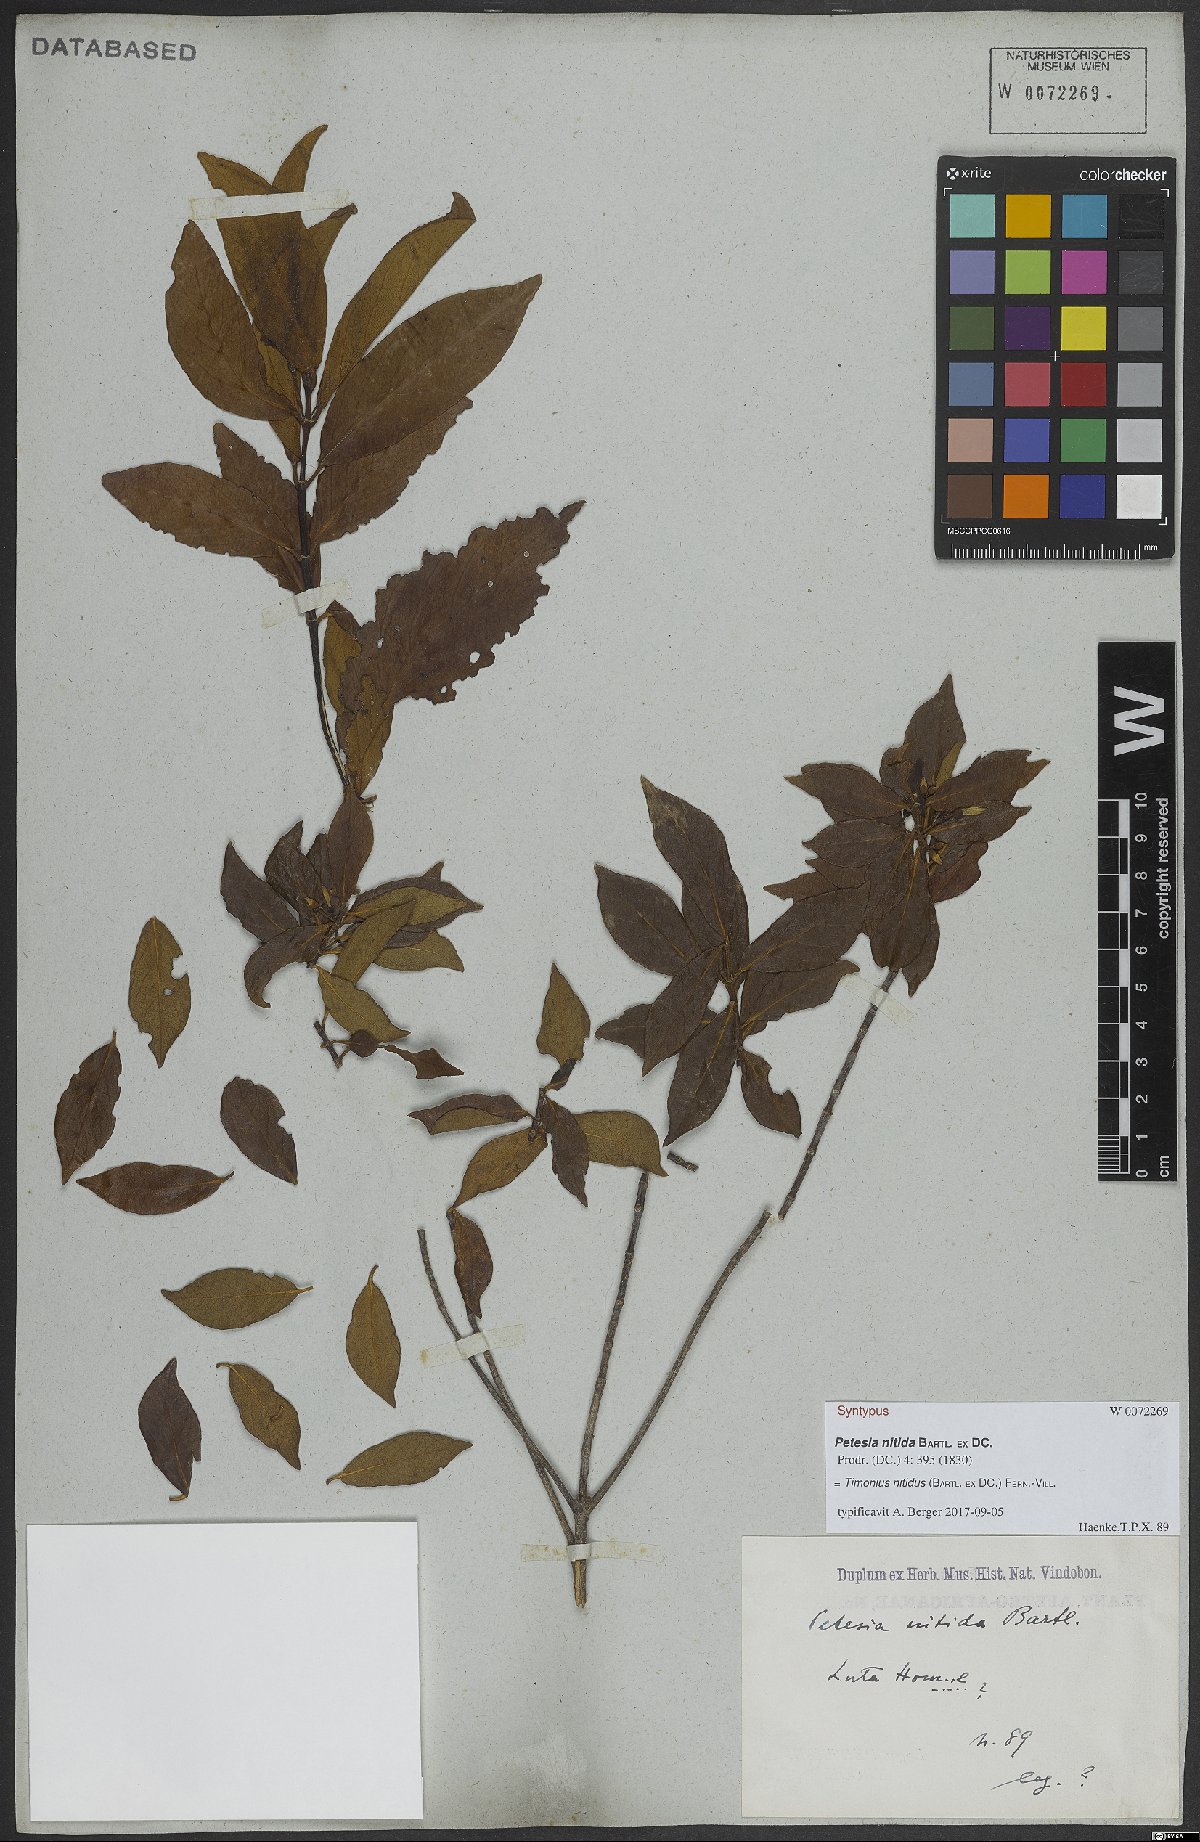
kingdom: Plantae
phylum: Tracheophyta
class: Magnoliopsida
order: Gentianales
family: Rubiaceae
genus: Timonius
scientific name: Timonius nitidus
